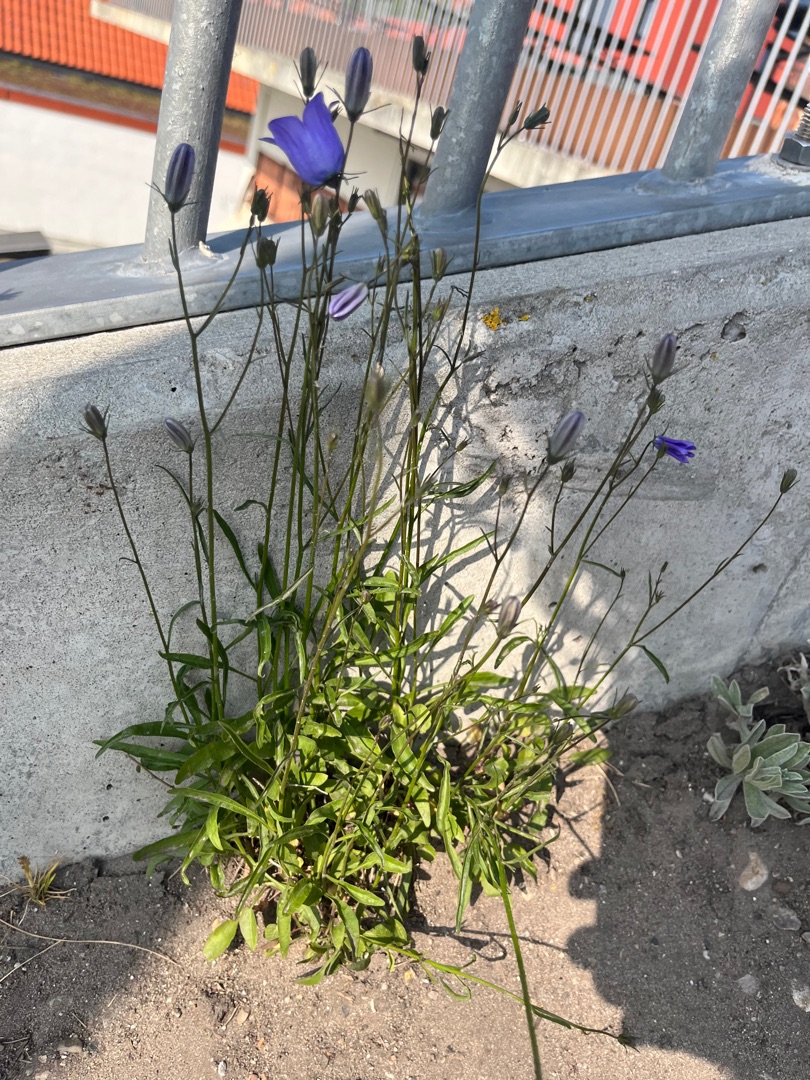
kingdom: Plantae
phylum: Tracheophyta
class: Magnoliopsida
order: Asterales
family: Campanulaceae
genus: Campanula
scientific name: Campanula rotundifolia
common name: Liden klokke
